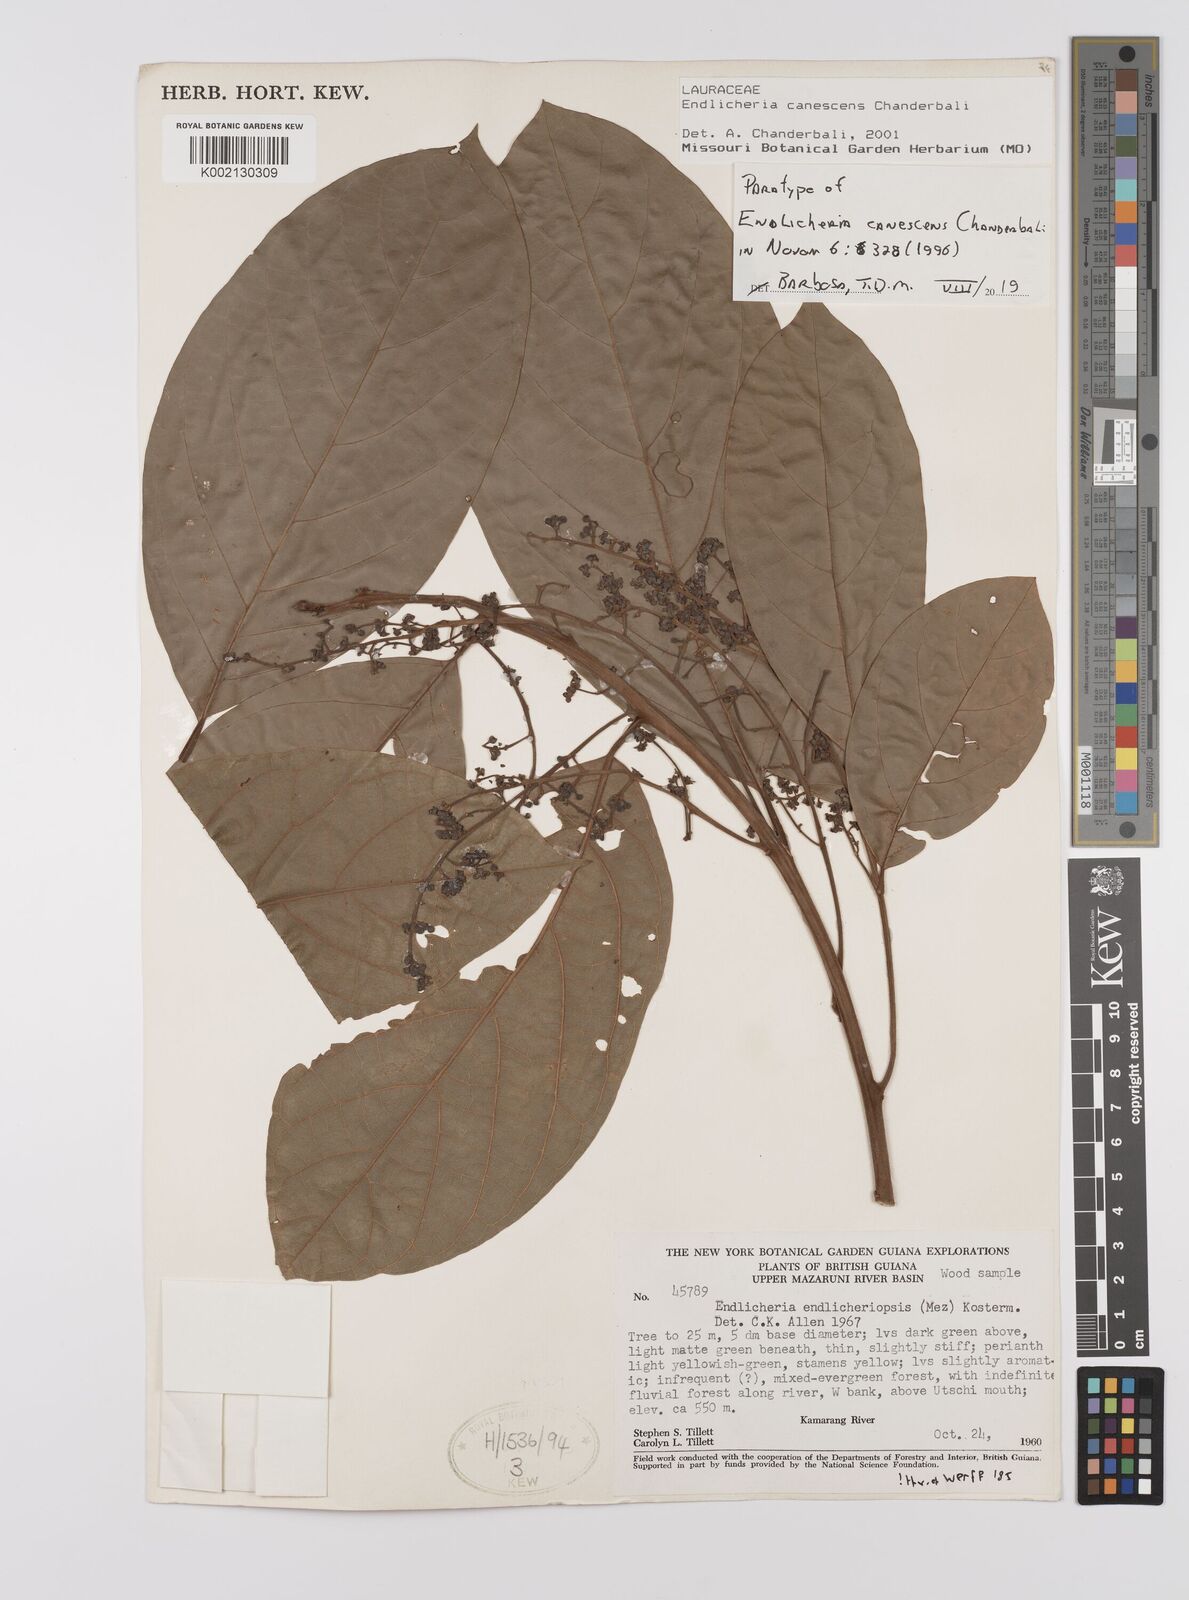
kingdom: Plantae
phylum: Tracheophyta
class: Magnoliopsida
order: Laurales
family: Lauraceae
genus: Endlicheria
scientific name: Endlicheria canescens
